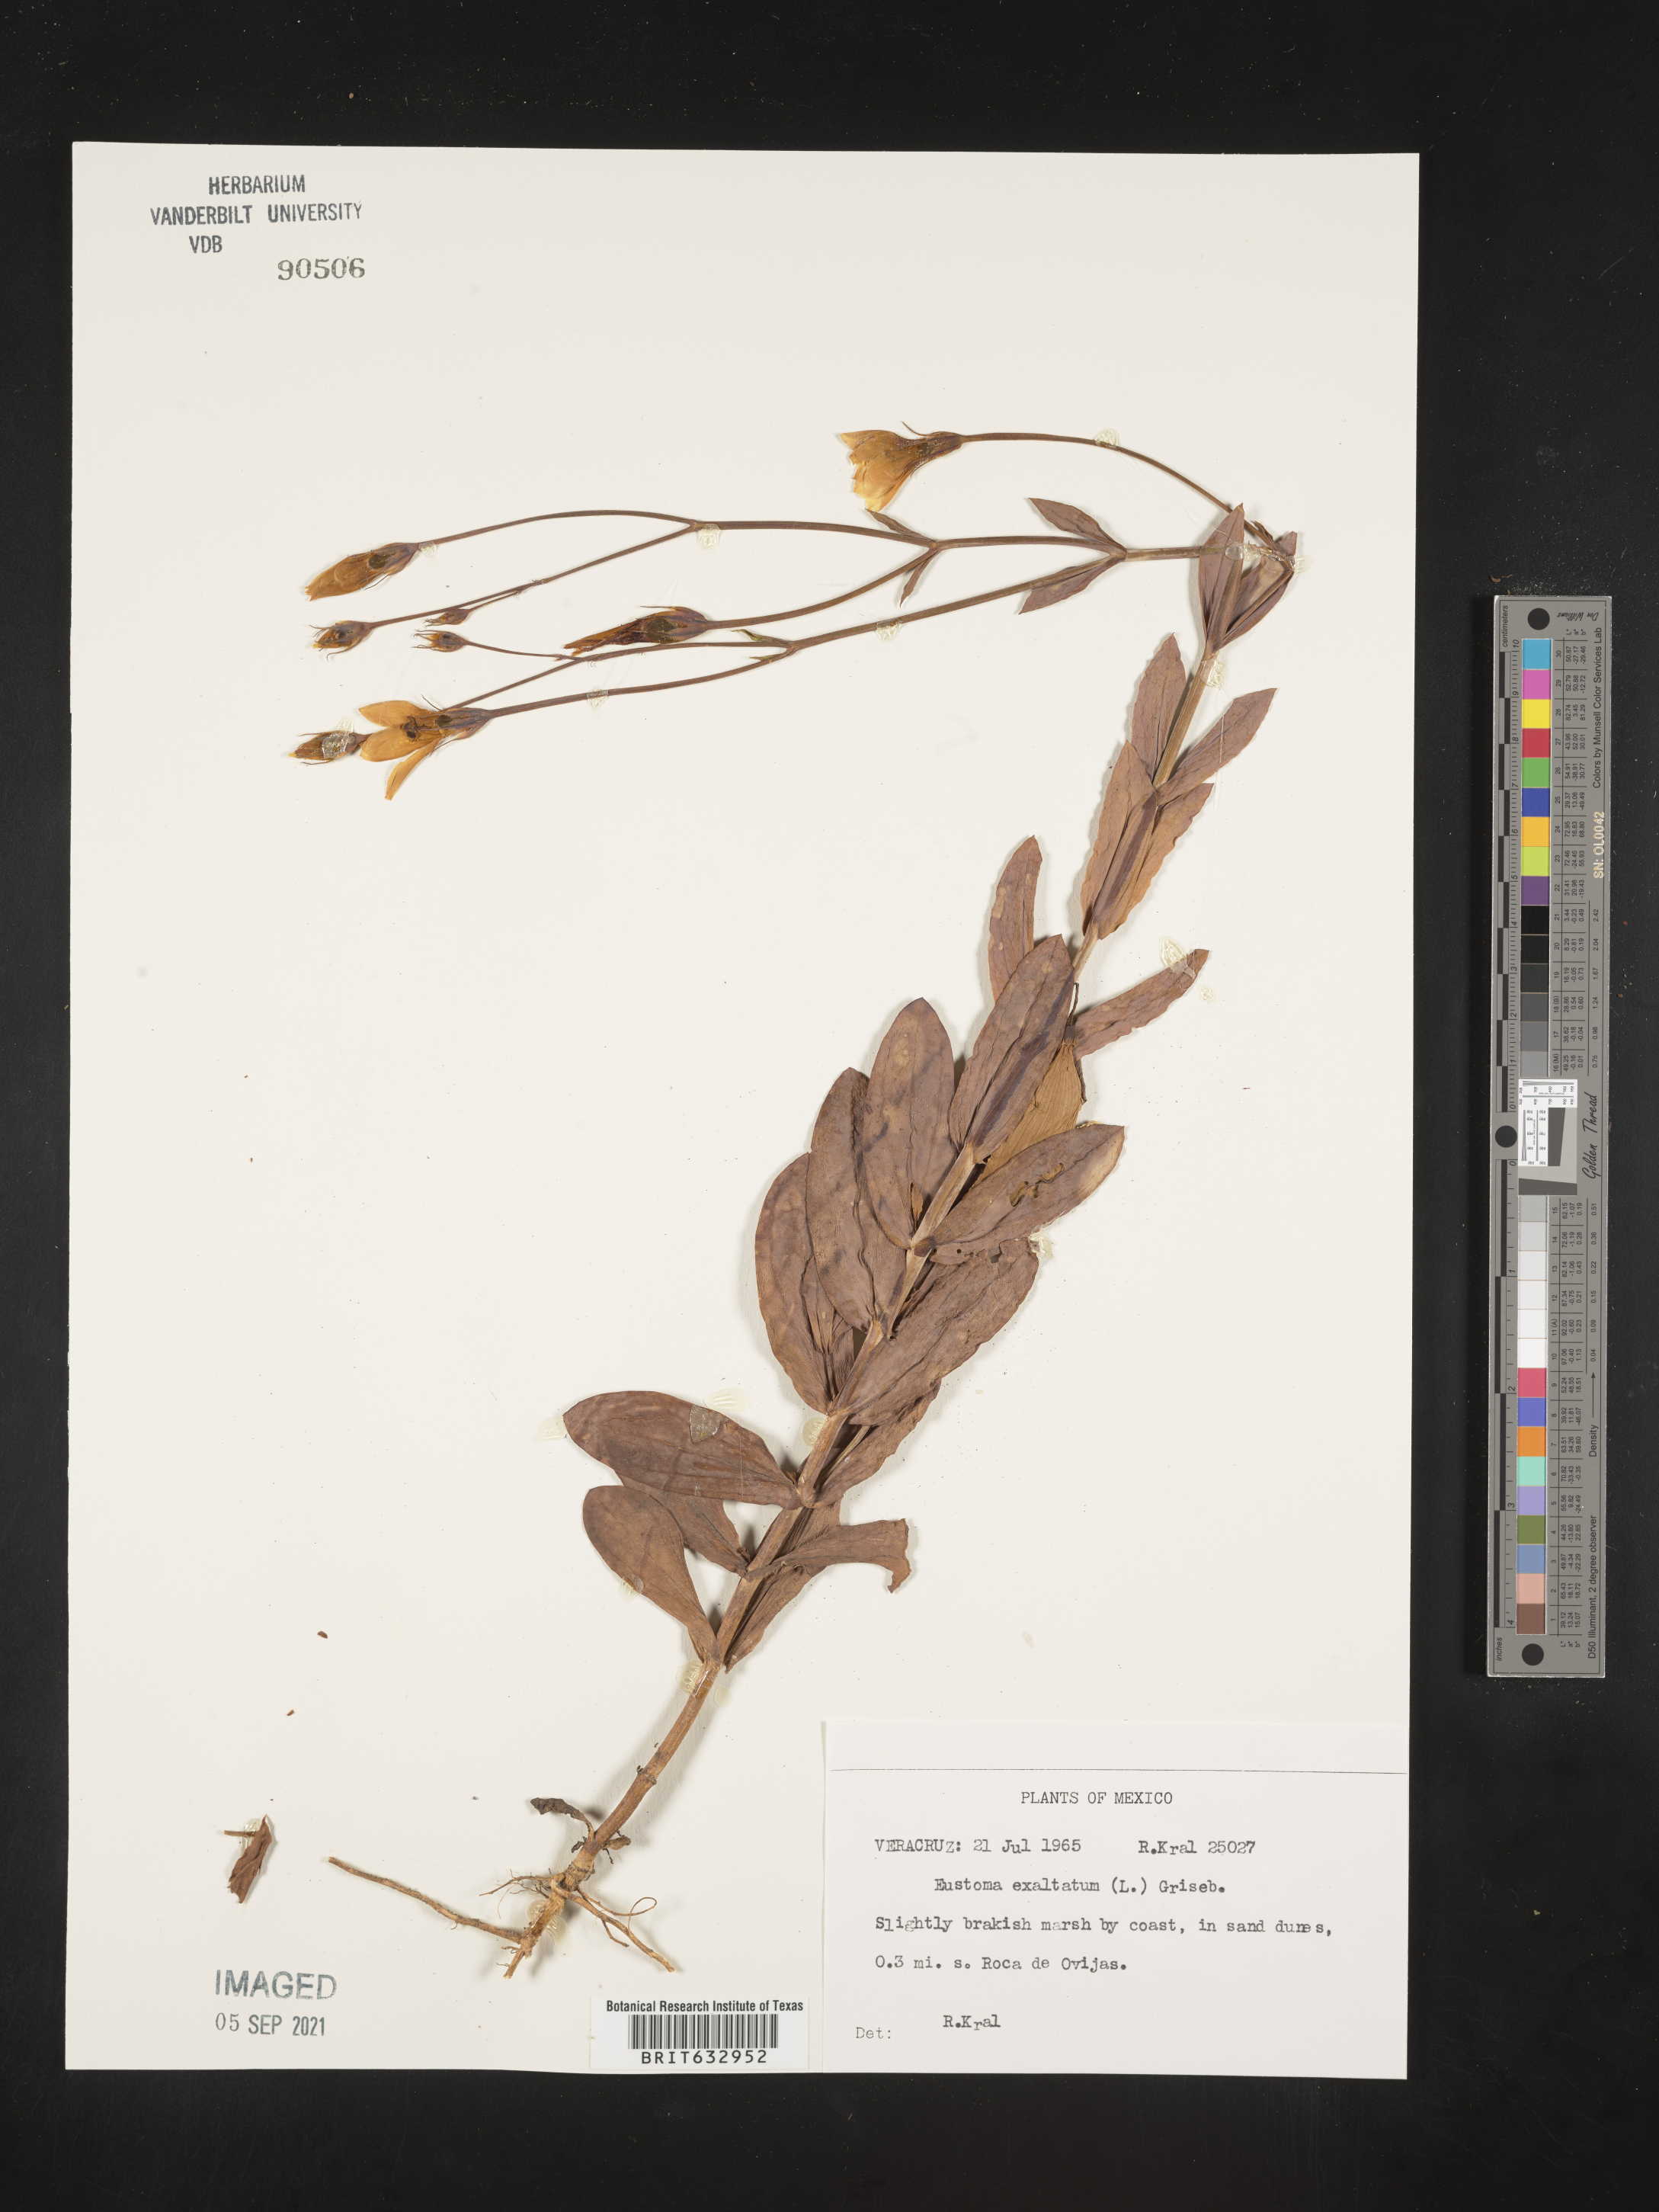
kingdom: Plantae
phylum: Tracheophyta
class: Magnoliopsida
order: Gentianales
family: Gentianaceae
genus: Eustoma
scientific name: Eustoma
